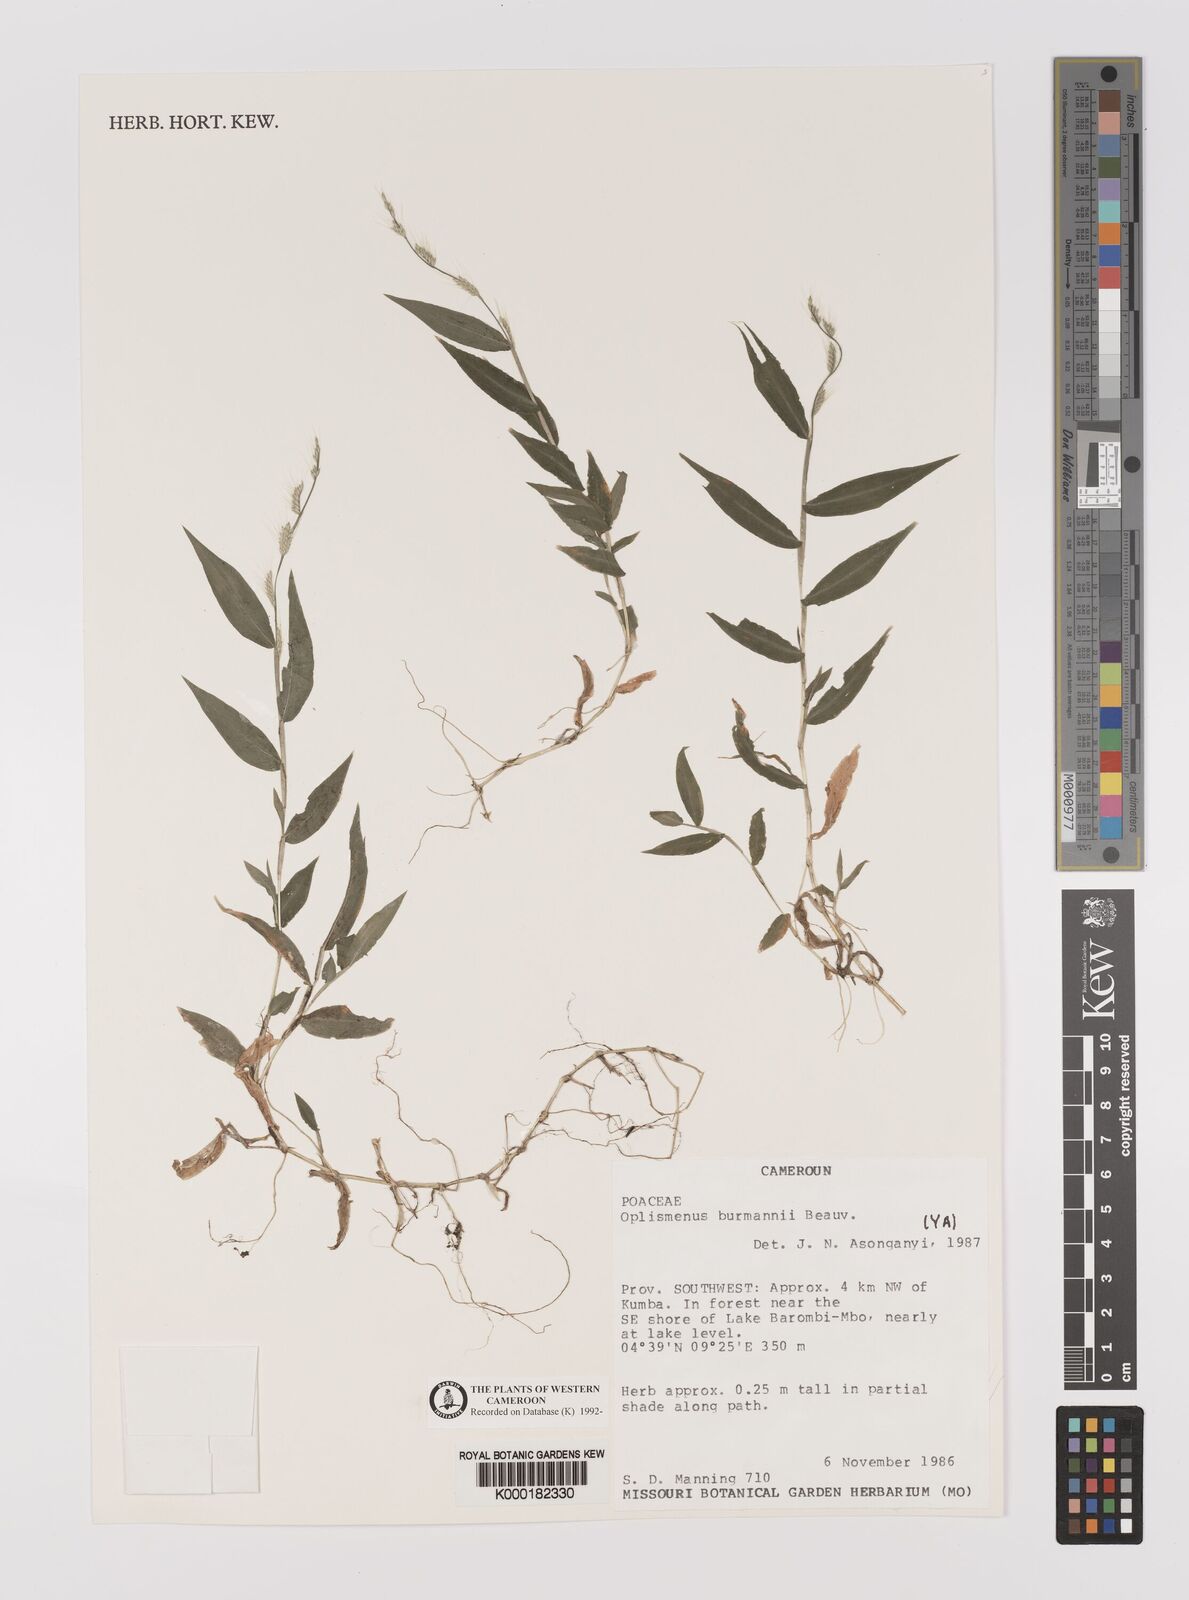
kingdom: Plantae
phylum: Tracheophyta
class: Liliopsida
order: Poales
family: Poaceae
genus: Oplismenus
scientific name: Oplismenus burmanni
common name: Burmann's basketgrass
